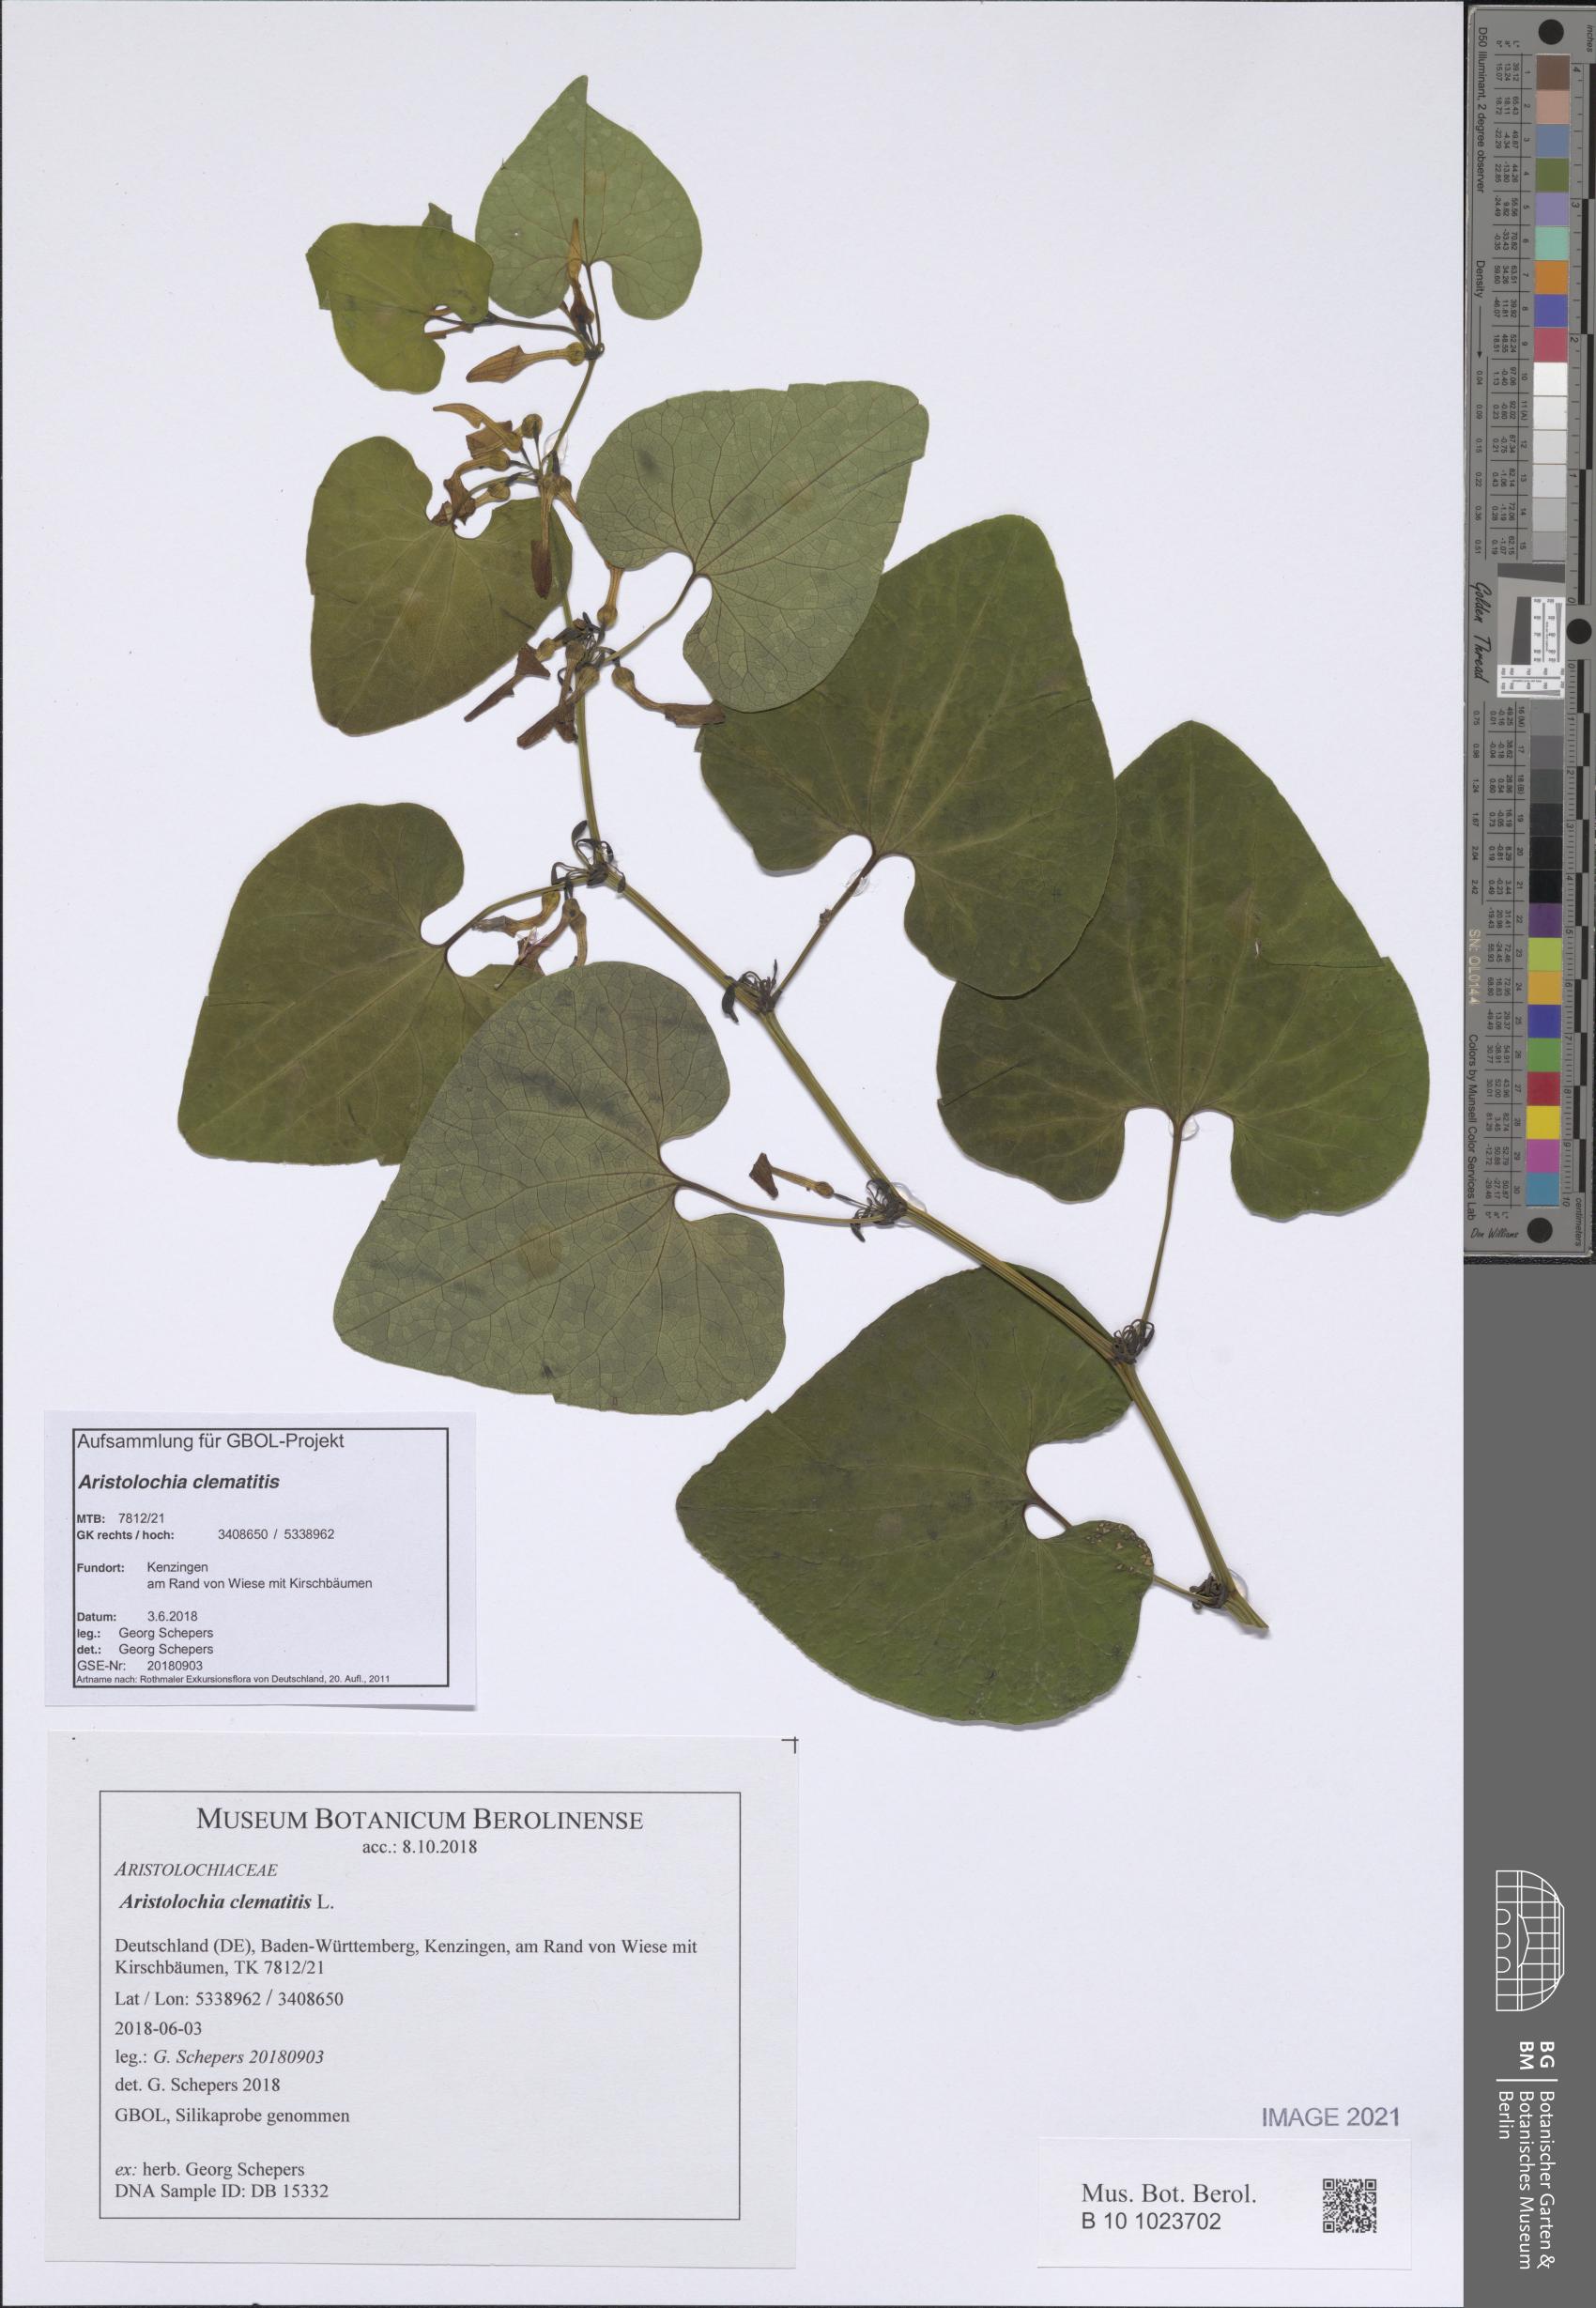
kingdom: Plantae
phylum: Tracheophyta
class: Magnoliopsida
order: Piperales
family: Aristolochiaceae
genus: Aristolochia
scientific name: Aristolochia clematitis
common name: Birthwort
